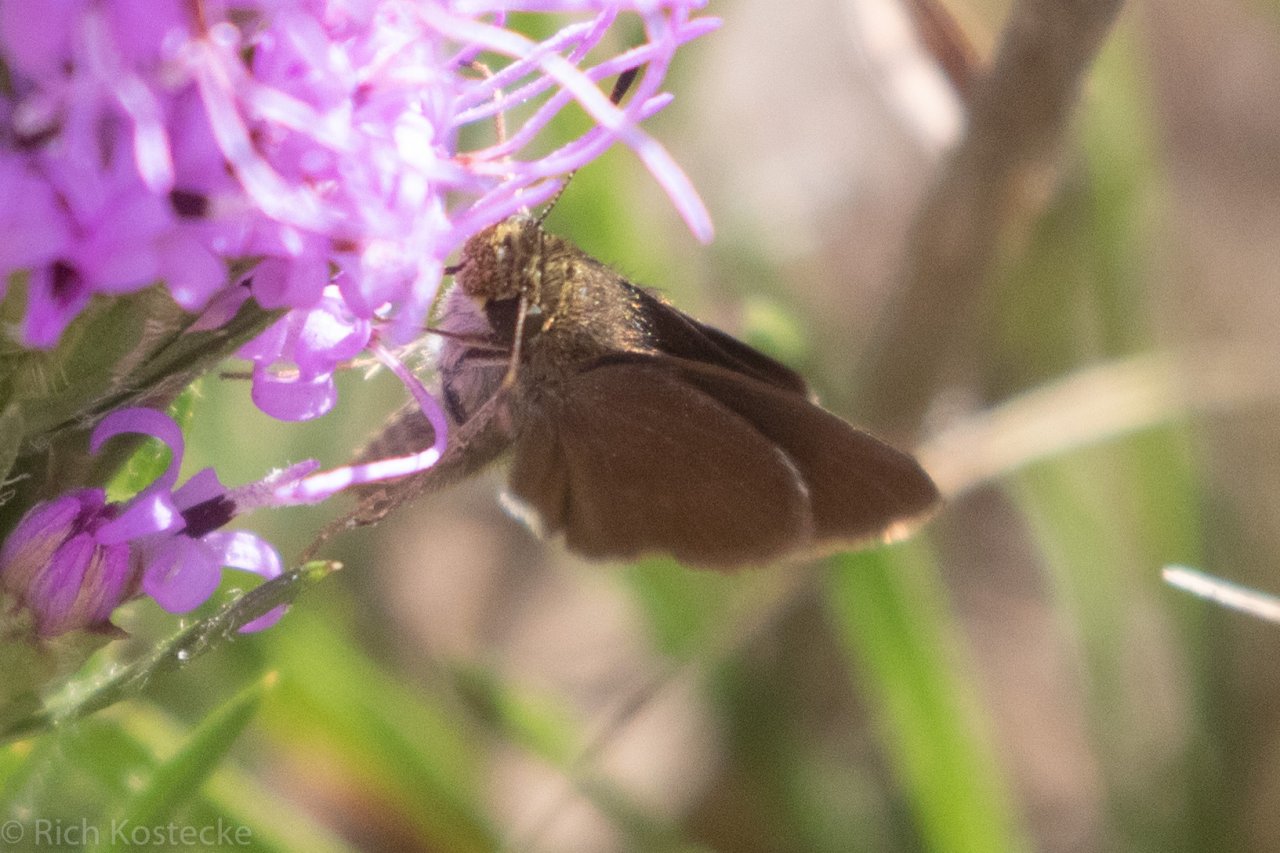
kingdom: Animalia
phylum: Arthropoda
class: Insecta
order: Lepidoptera
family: Hesperiidae
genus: Euphyes
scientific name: Euphyes vestris
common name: Dun Skipper
